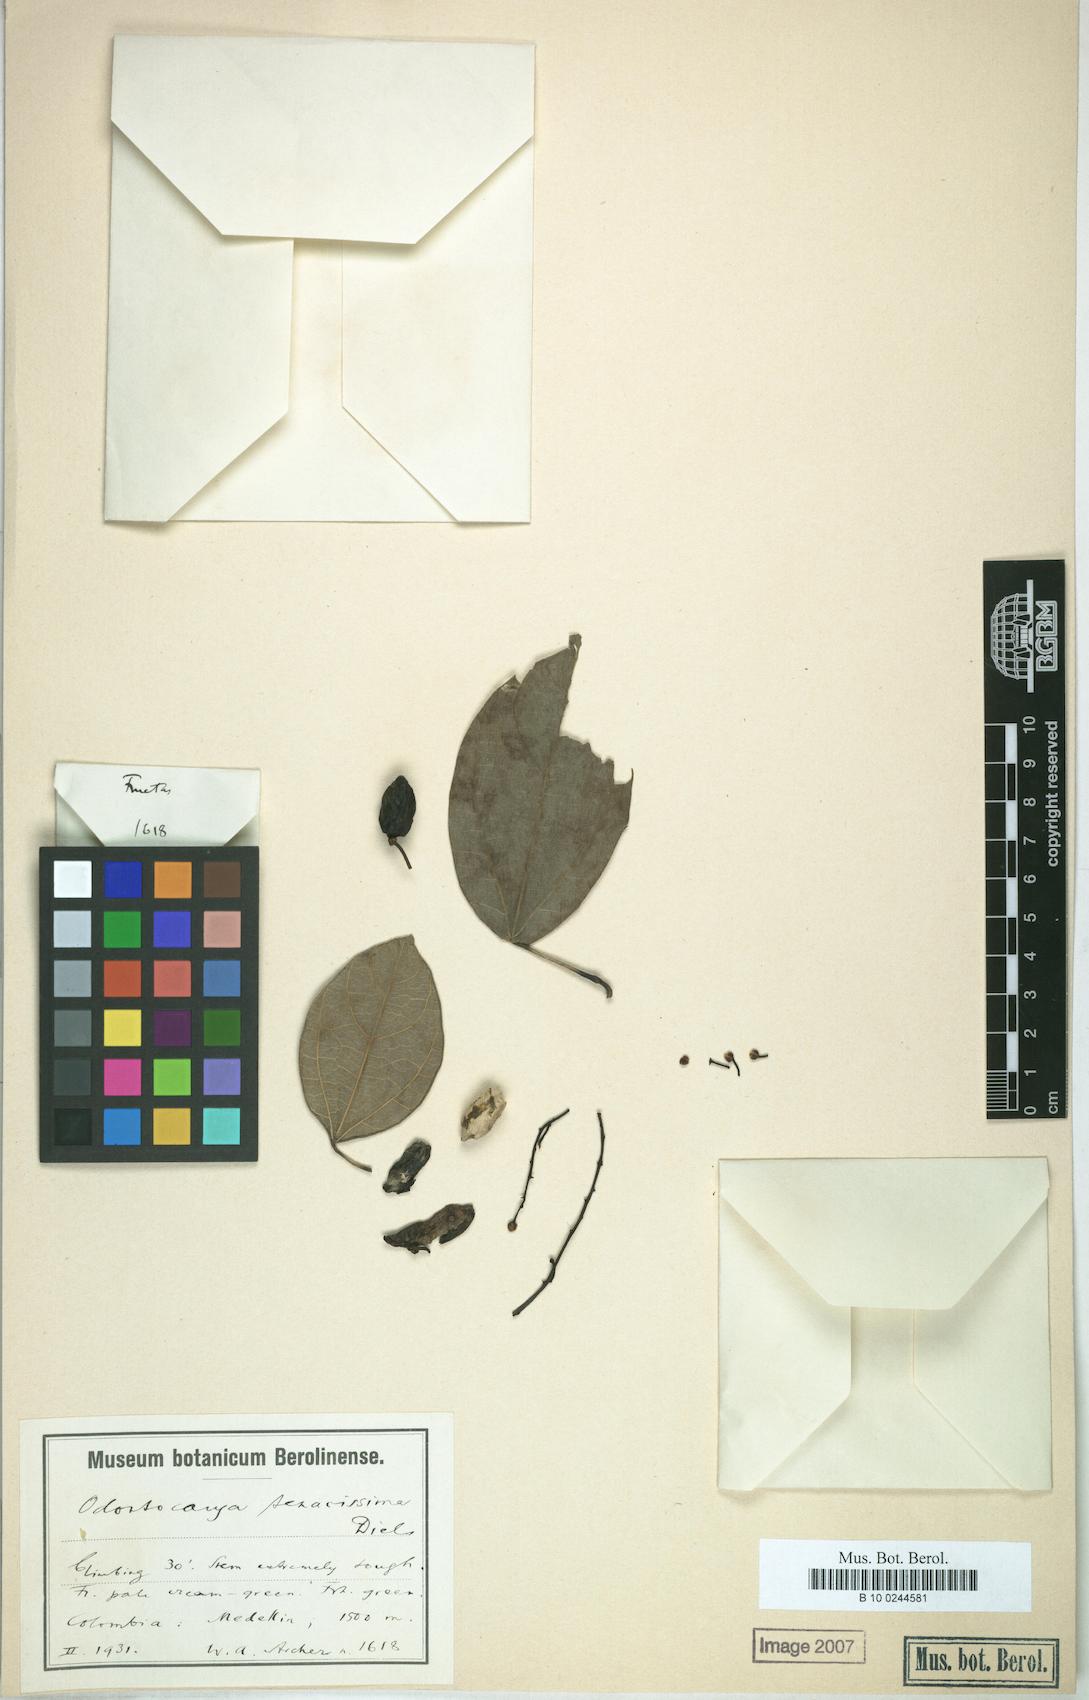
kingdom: Plantae
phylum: Tracheophyta
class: Magnoliopsida
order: Ranunculales
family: Menispermaceae
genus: Odontocarya
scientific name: Odontocarya tenacissima
